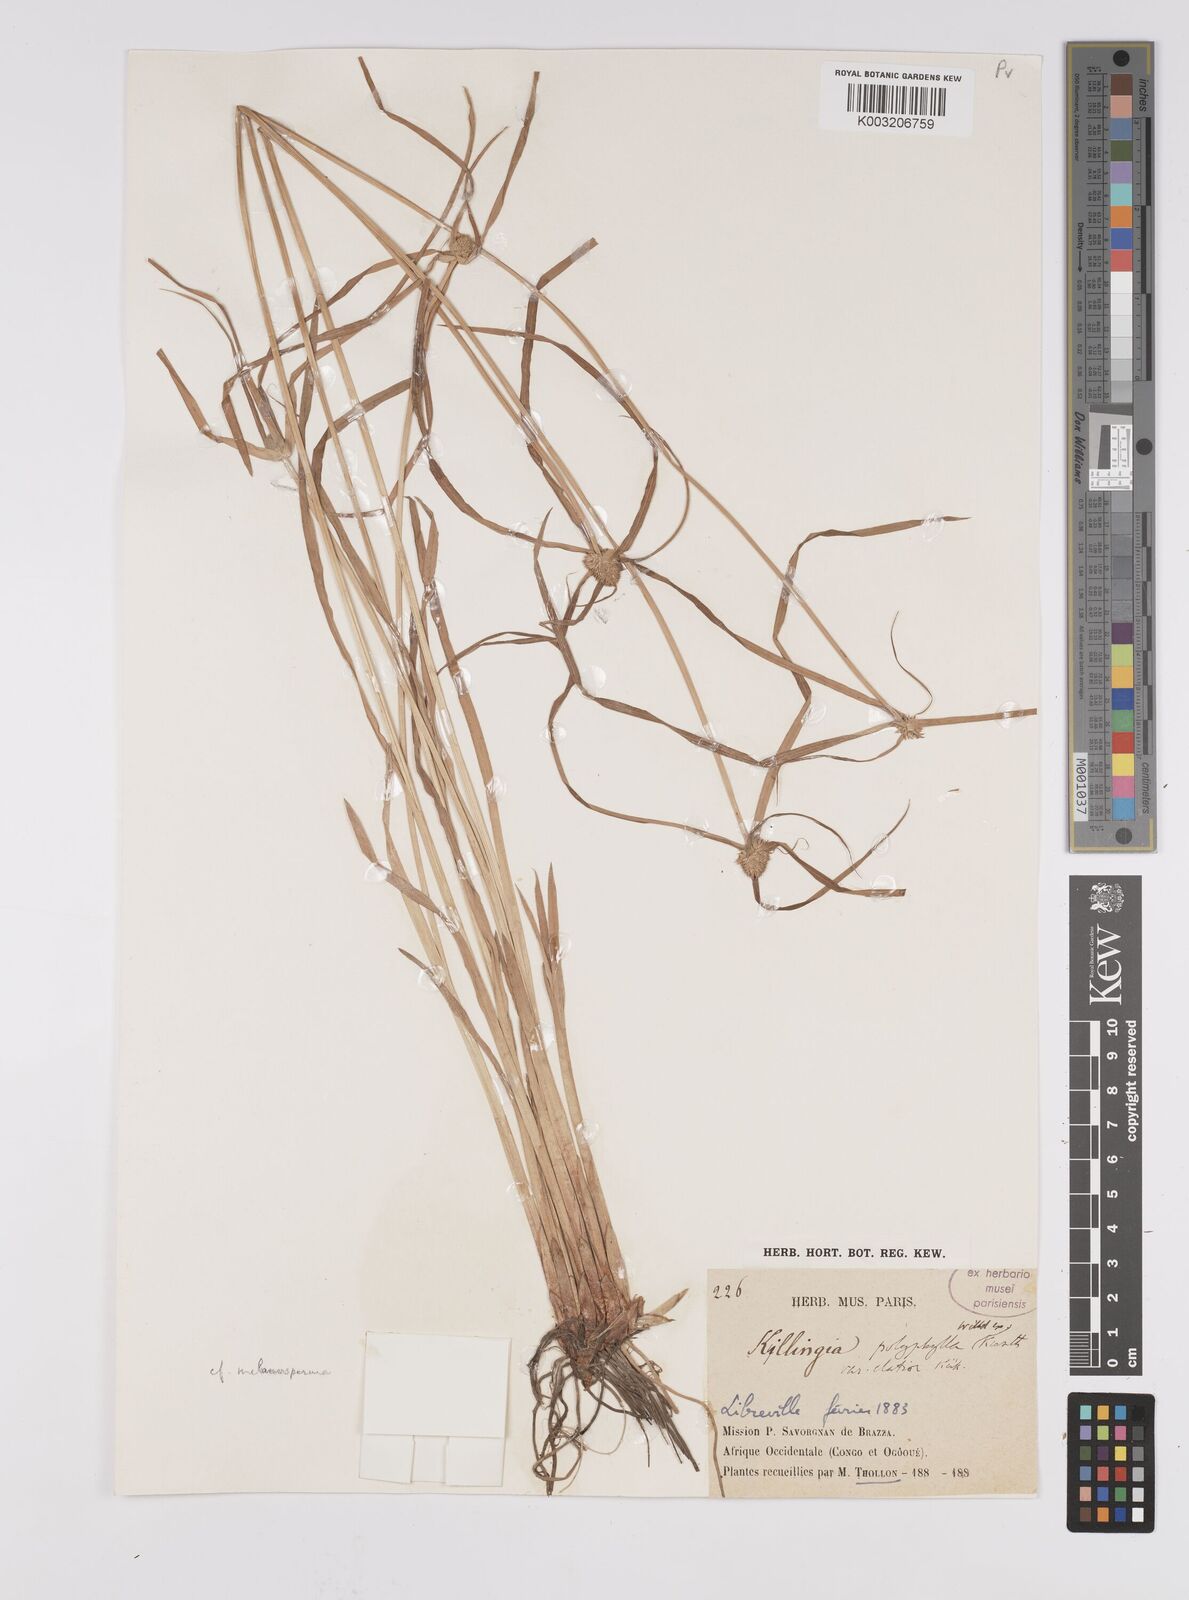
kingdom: Plantae
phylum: Tracheophyta
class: Liliopsida
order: Poales
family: Cyperaceae
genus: Cyperus
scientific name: Cyperus
